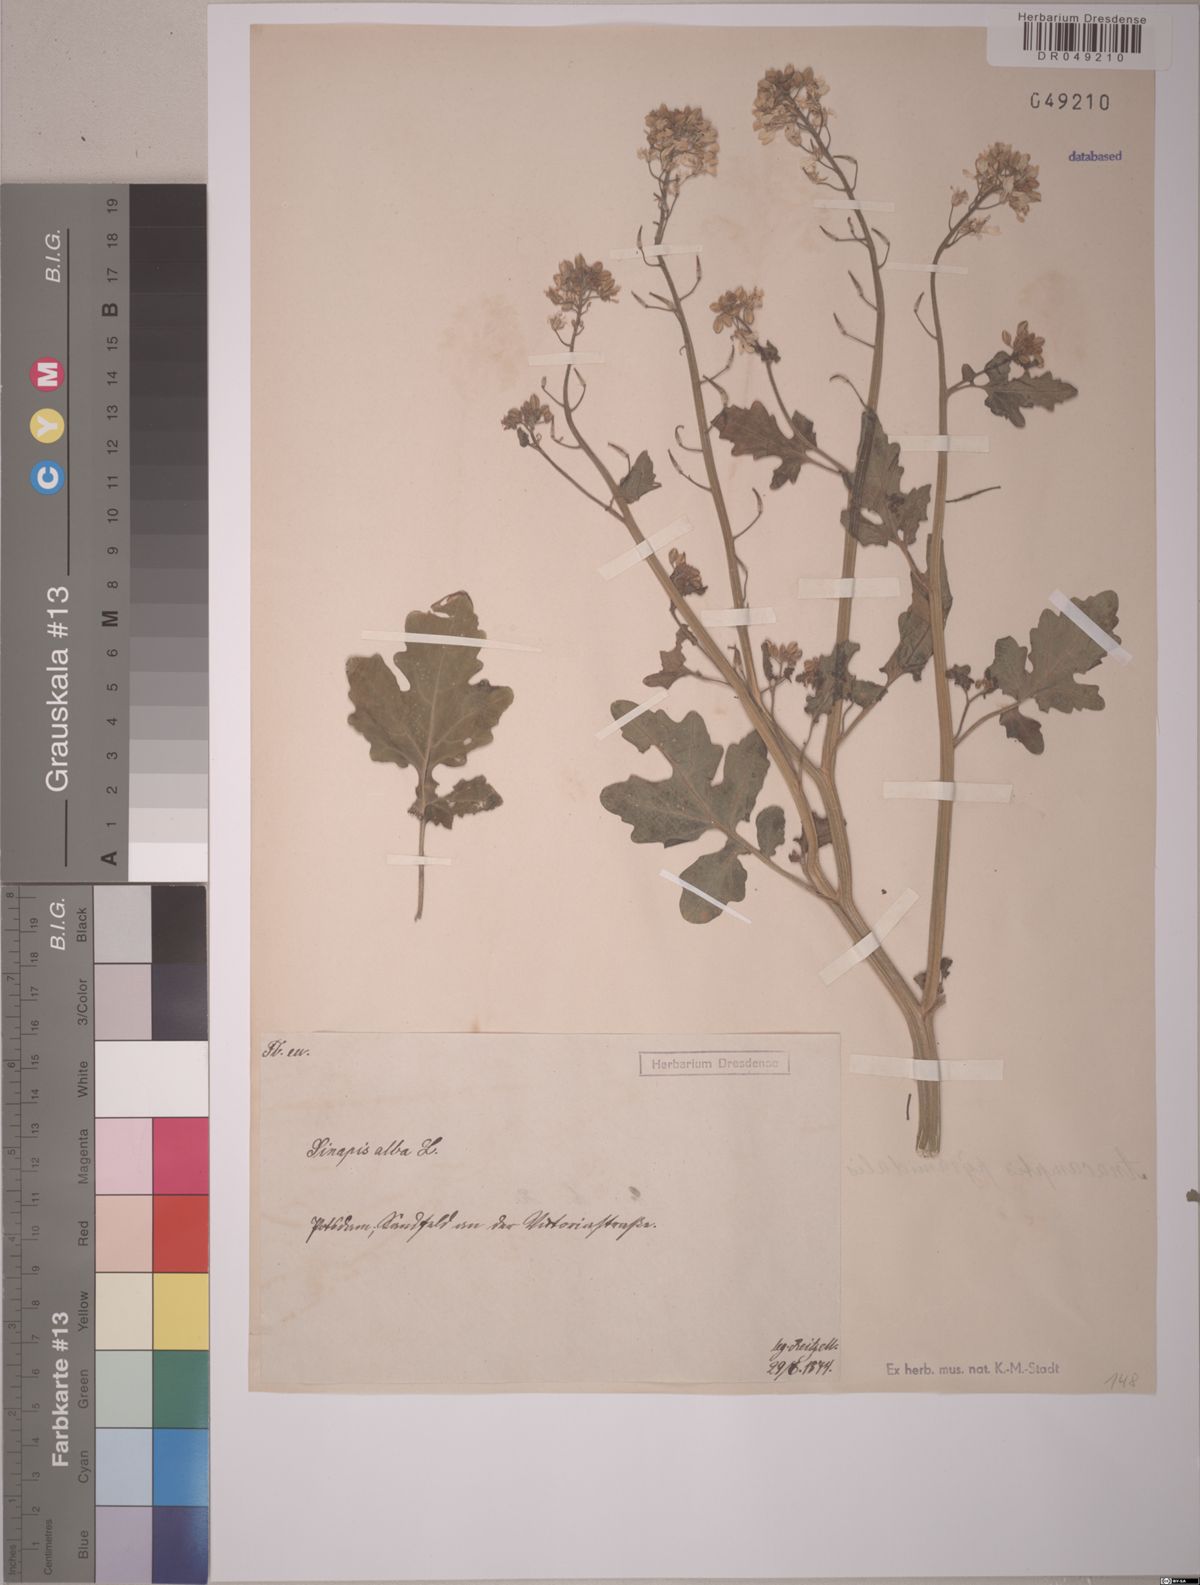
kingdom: Plantae
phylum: Tracheophyta
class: Magnoliopsida
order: Brassicales
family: Brassicaceae
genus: Sinapis
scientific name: Sinapis alba
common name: White mustard
